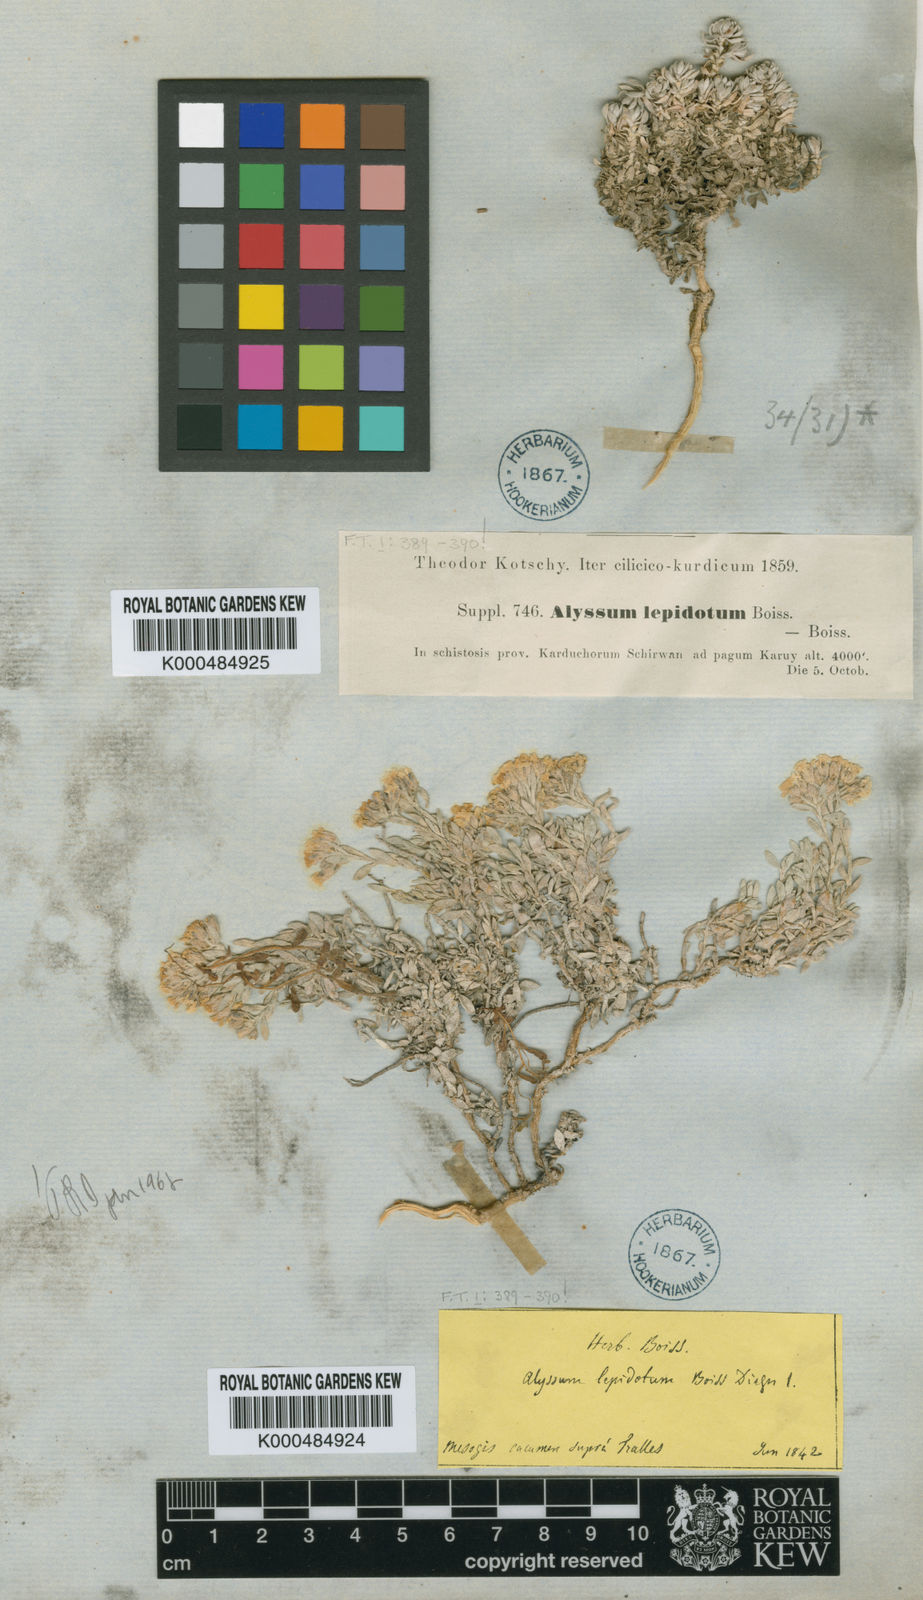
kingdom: Plantae
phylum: Tracheophyta
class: Magnoliopsida
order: Brassicales
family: Brassicaceae
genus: Alyssum
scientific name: Alyssum lepidotum
